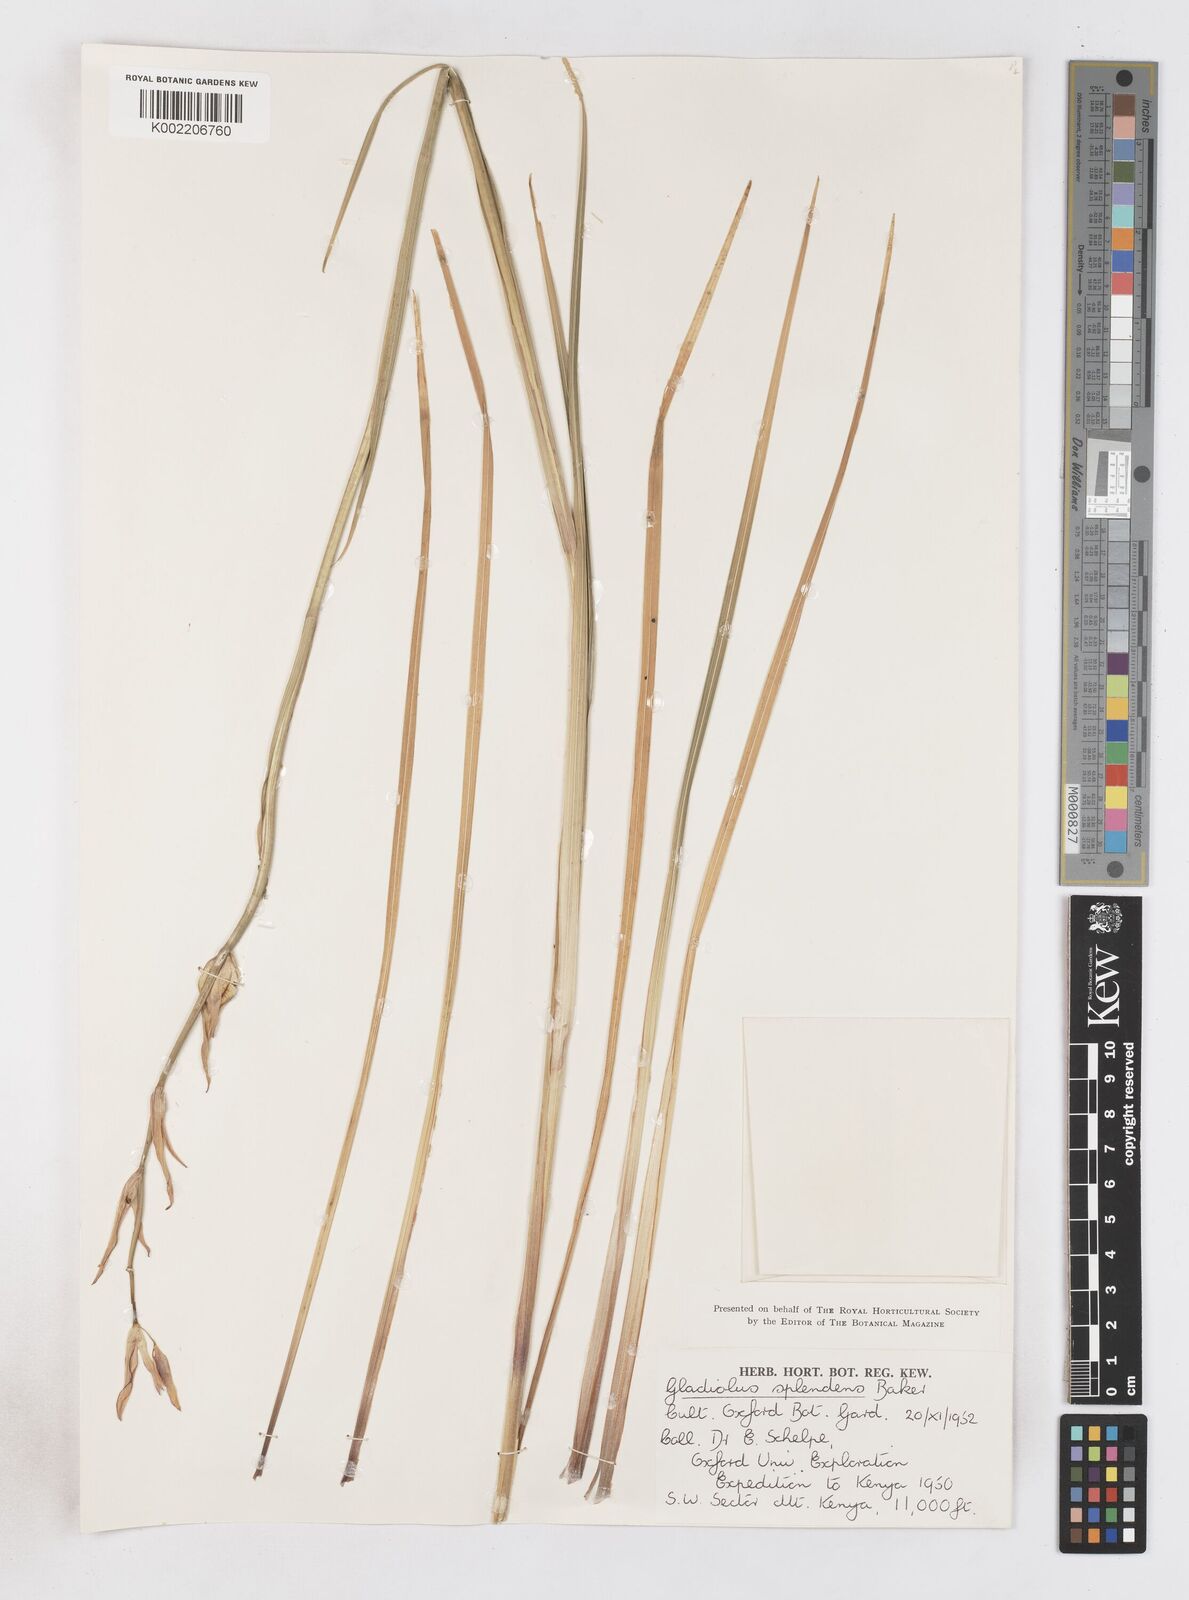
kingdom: Plantae
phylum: Tracheophyta
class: Liliopsida
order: Asparagales
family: Iridaceae
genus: Gladiolus
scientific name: Gladiolus watsonioides
